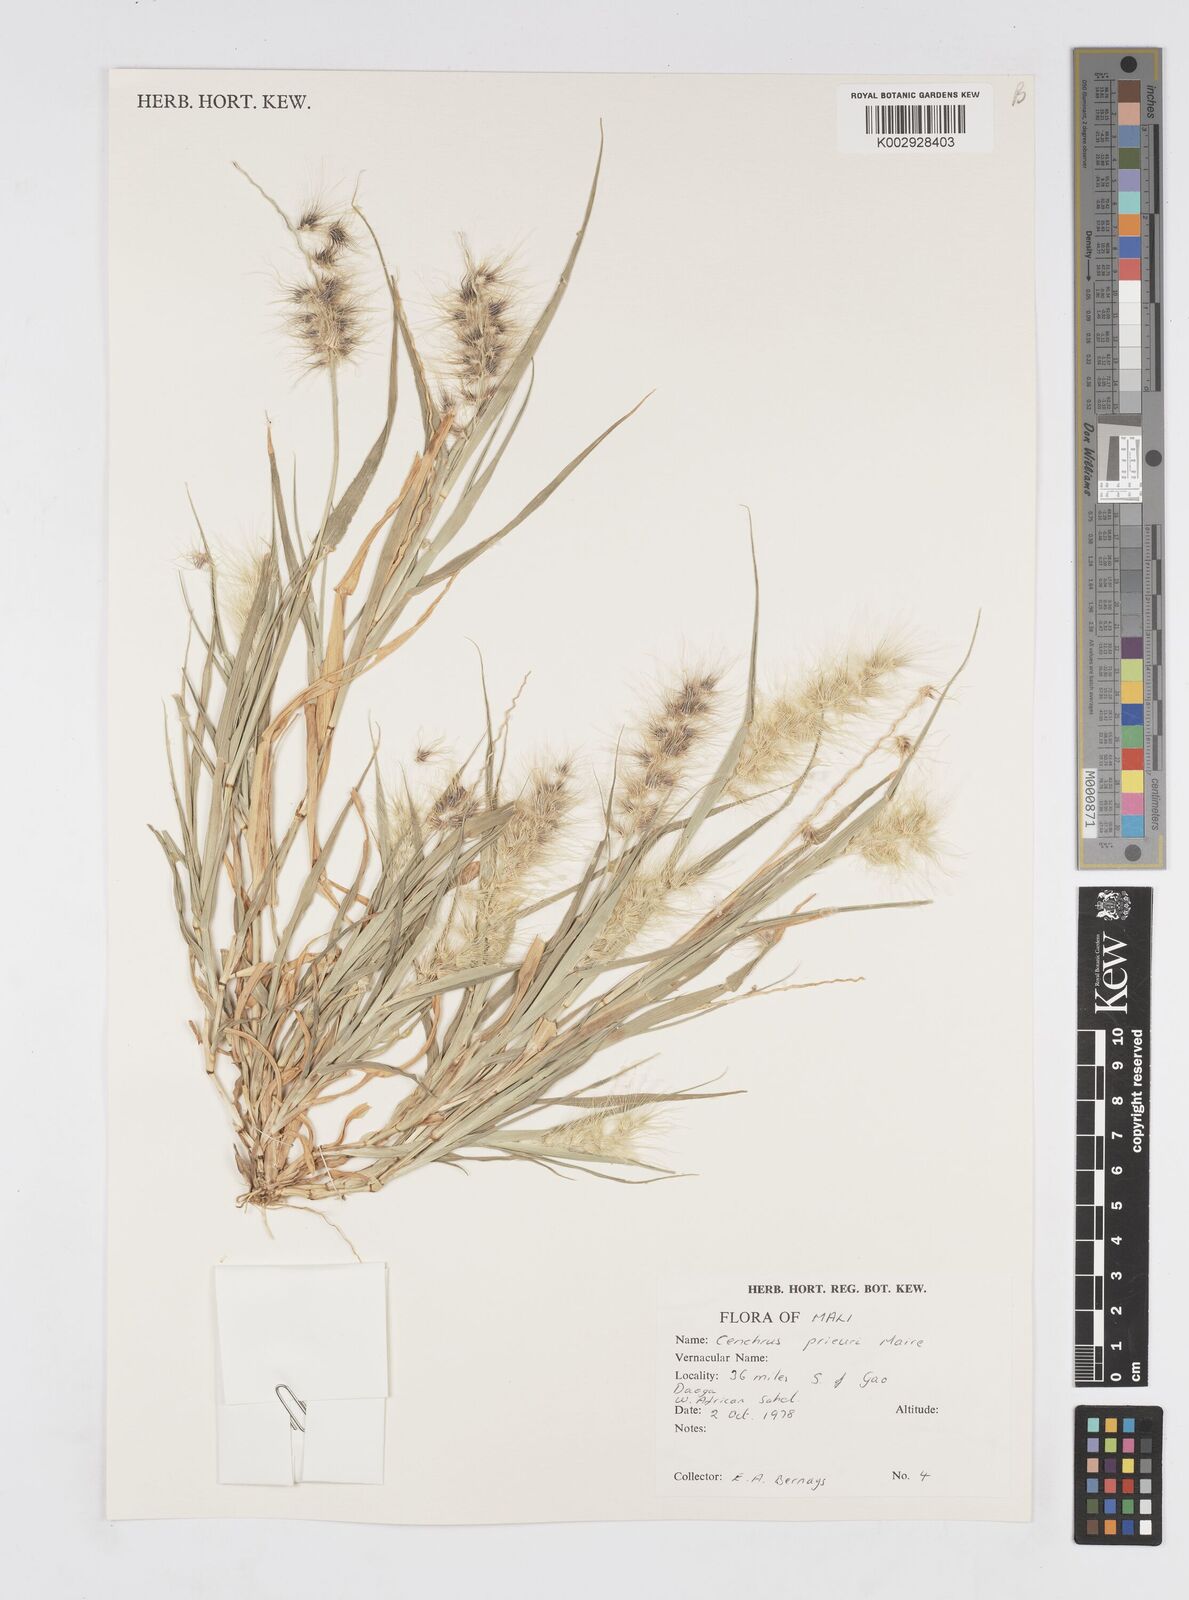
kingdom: Plantae
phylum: Tracheophyta
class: Liliopsida
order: Poales
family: Poaceae
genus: Cenchrus
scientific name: Cenchrus prieurii
